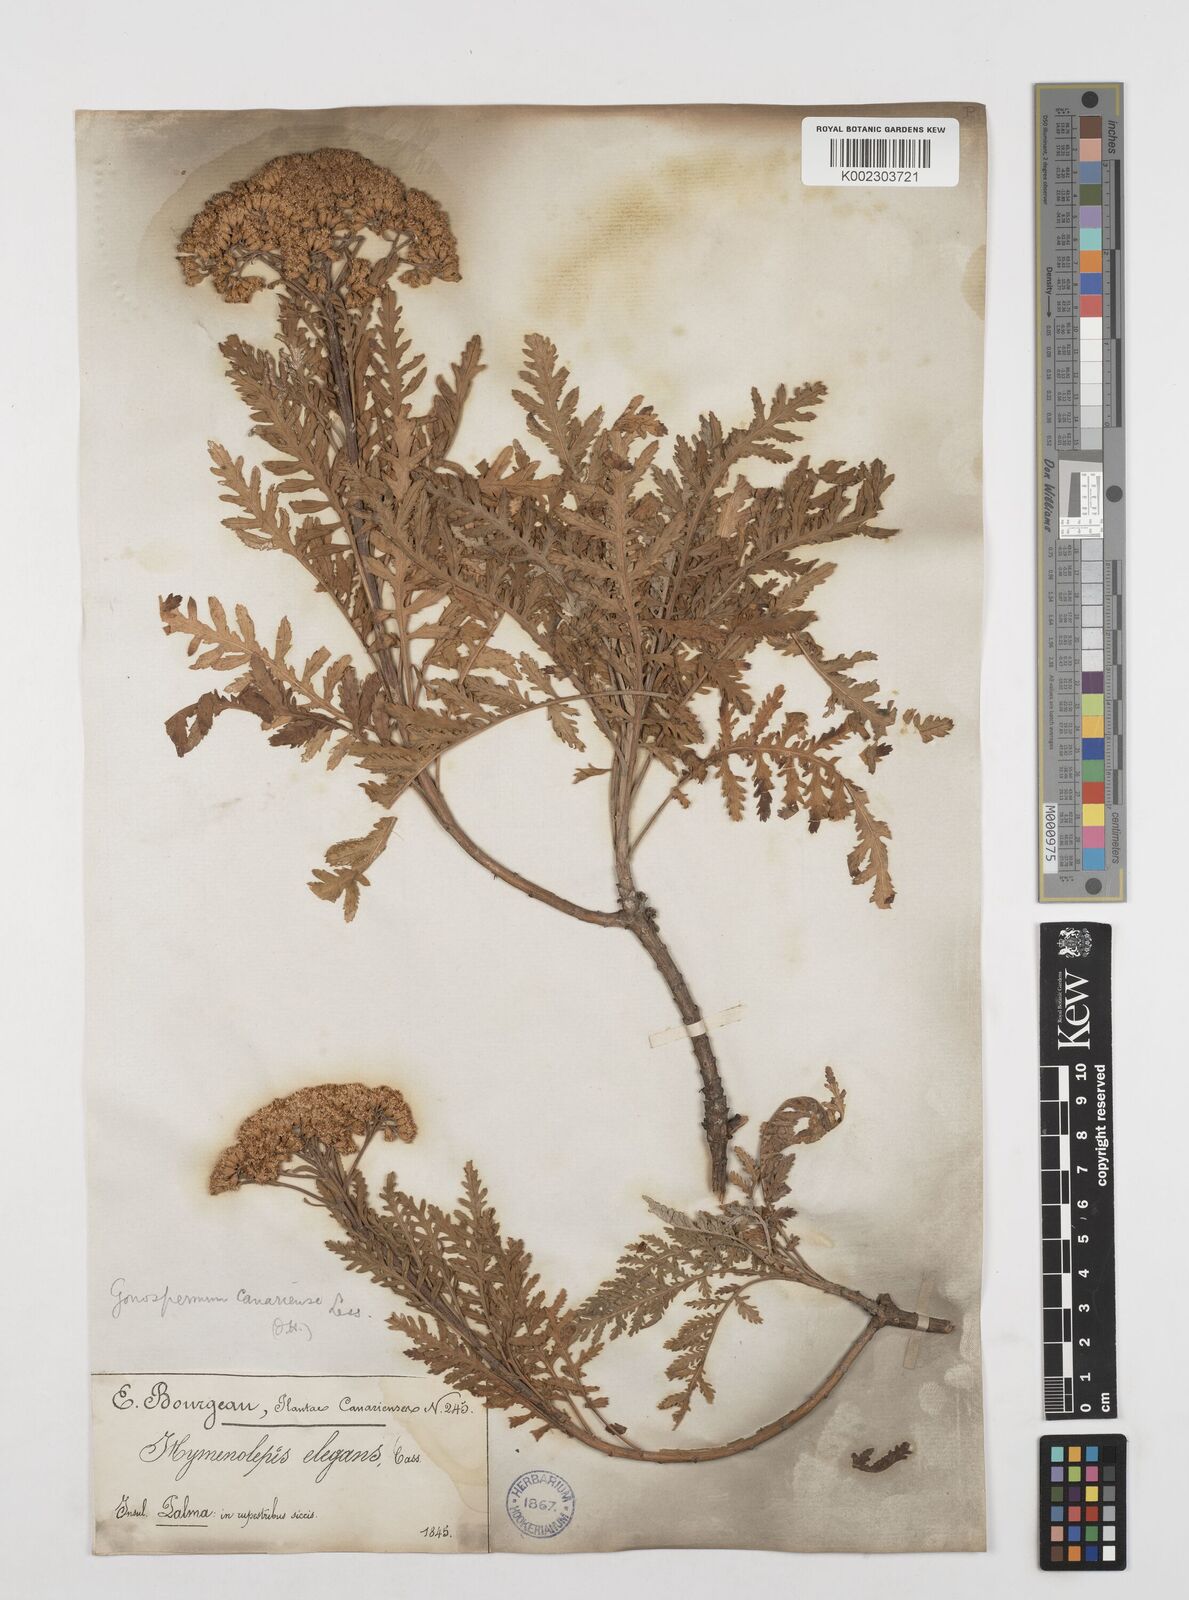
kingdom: Plantae
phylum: Tracheophyta
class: Magnoliopsida
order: Asterales
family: Asteraceae
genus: Gonospermum
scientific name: Gonospermum canariense
